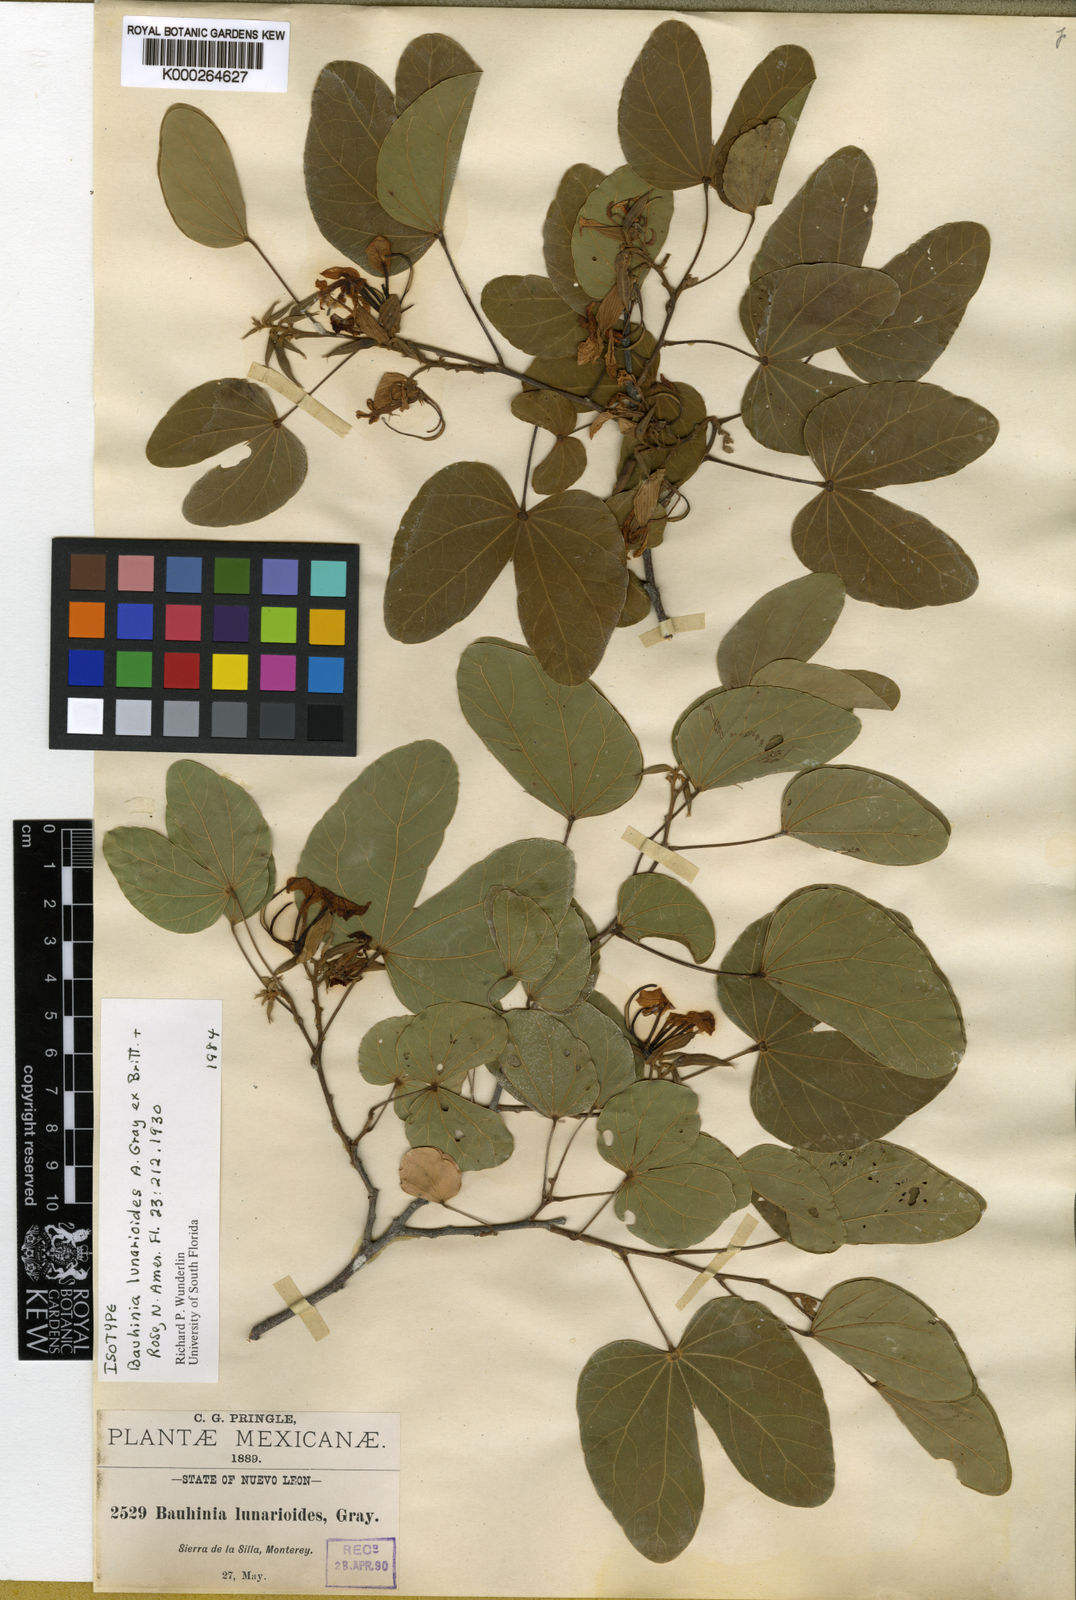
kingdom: Plantae
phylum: Tracheophyta
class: Magnoliopsida
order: Fabales
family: Fabaceae
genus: Bauhinia
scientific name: Bauhinia lunarioides
